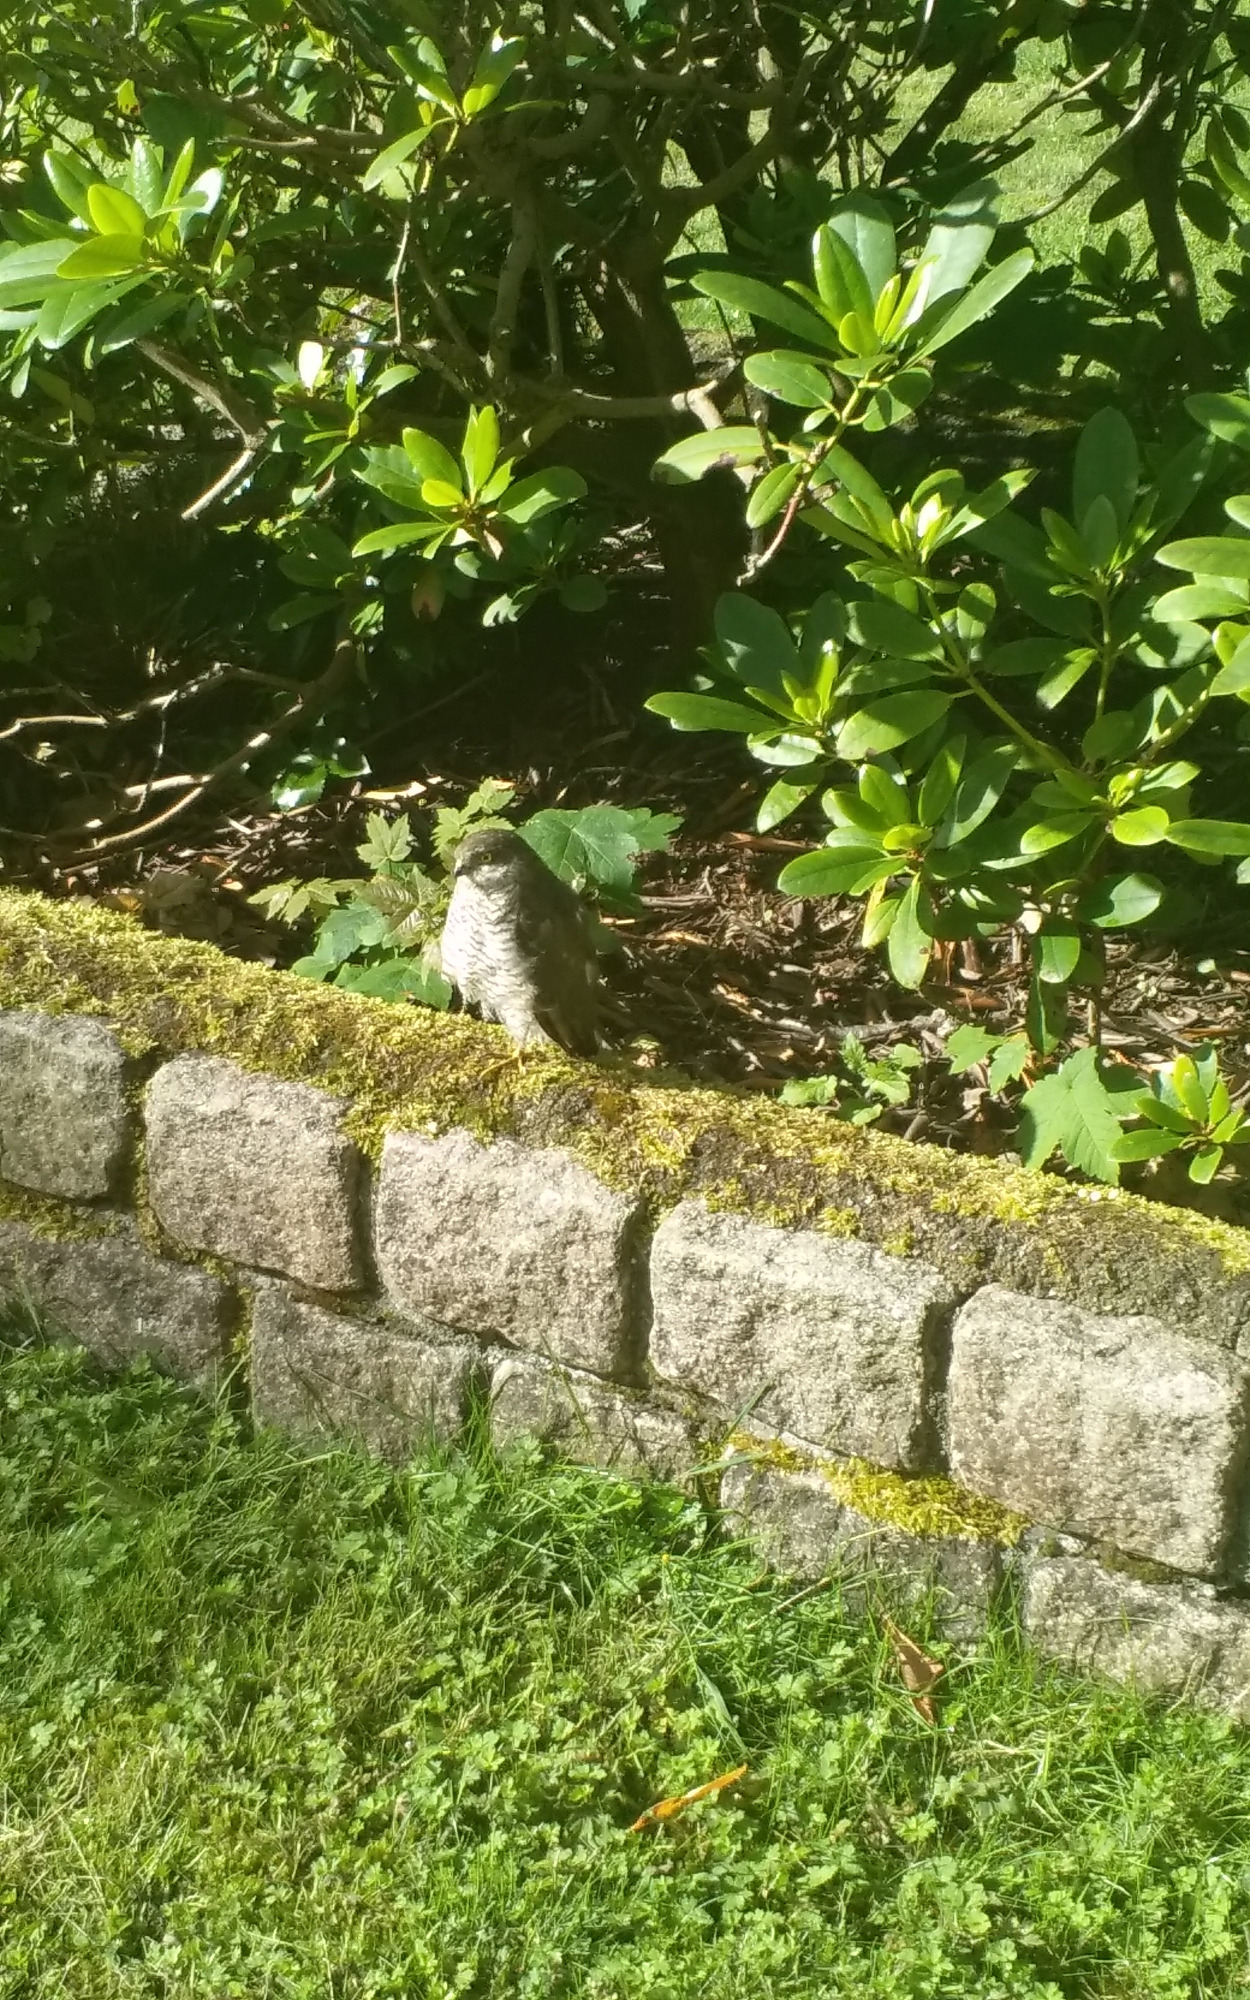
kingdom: Animalia
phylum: Chordata
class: Aves
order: Accipitriformes
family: Accipitridae
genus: Accipiter
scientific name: Accipiter nisus
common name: Spurvehøg
